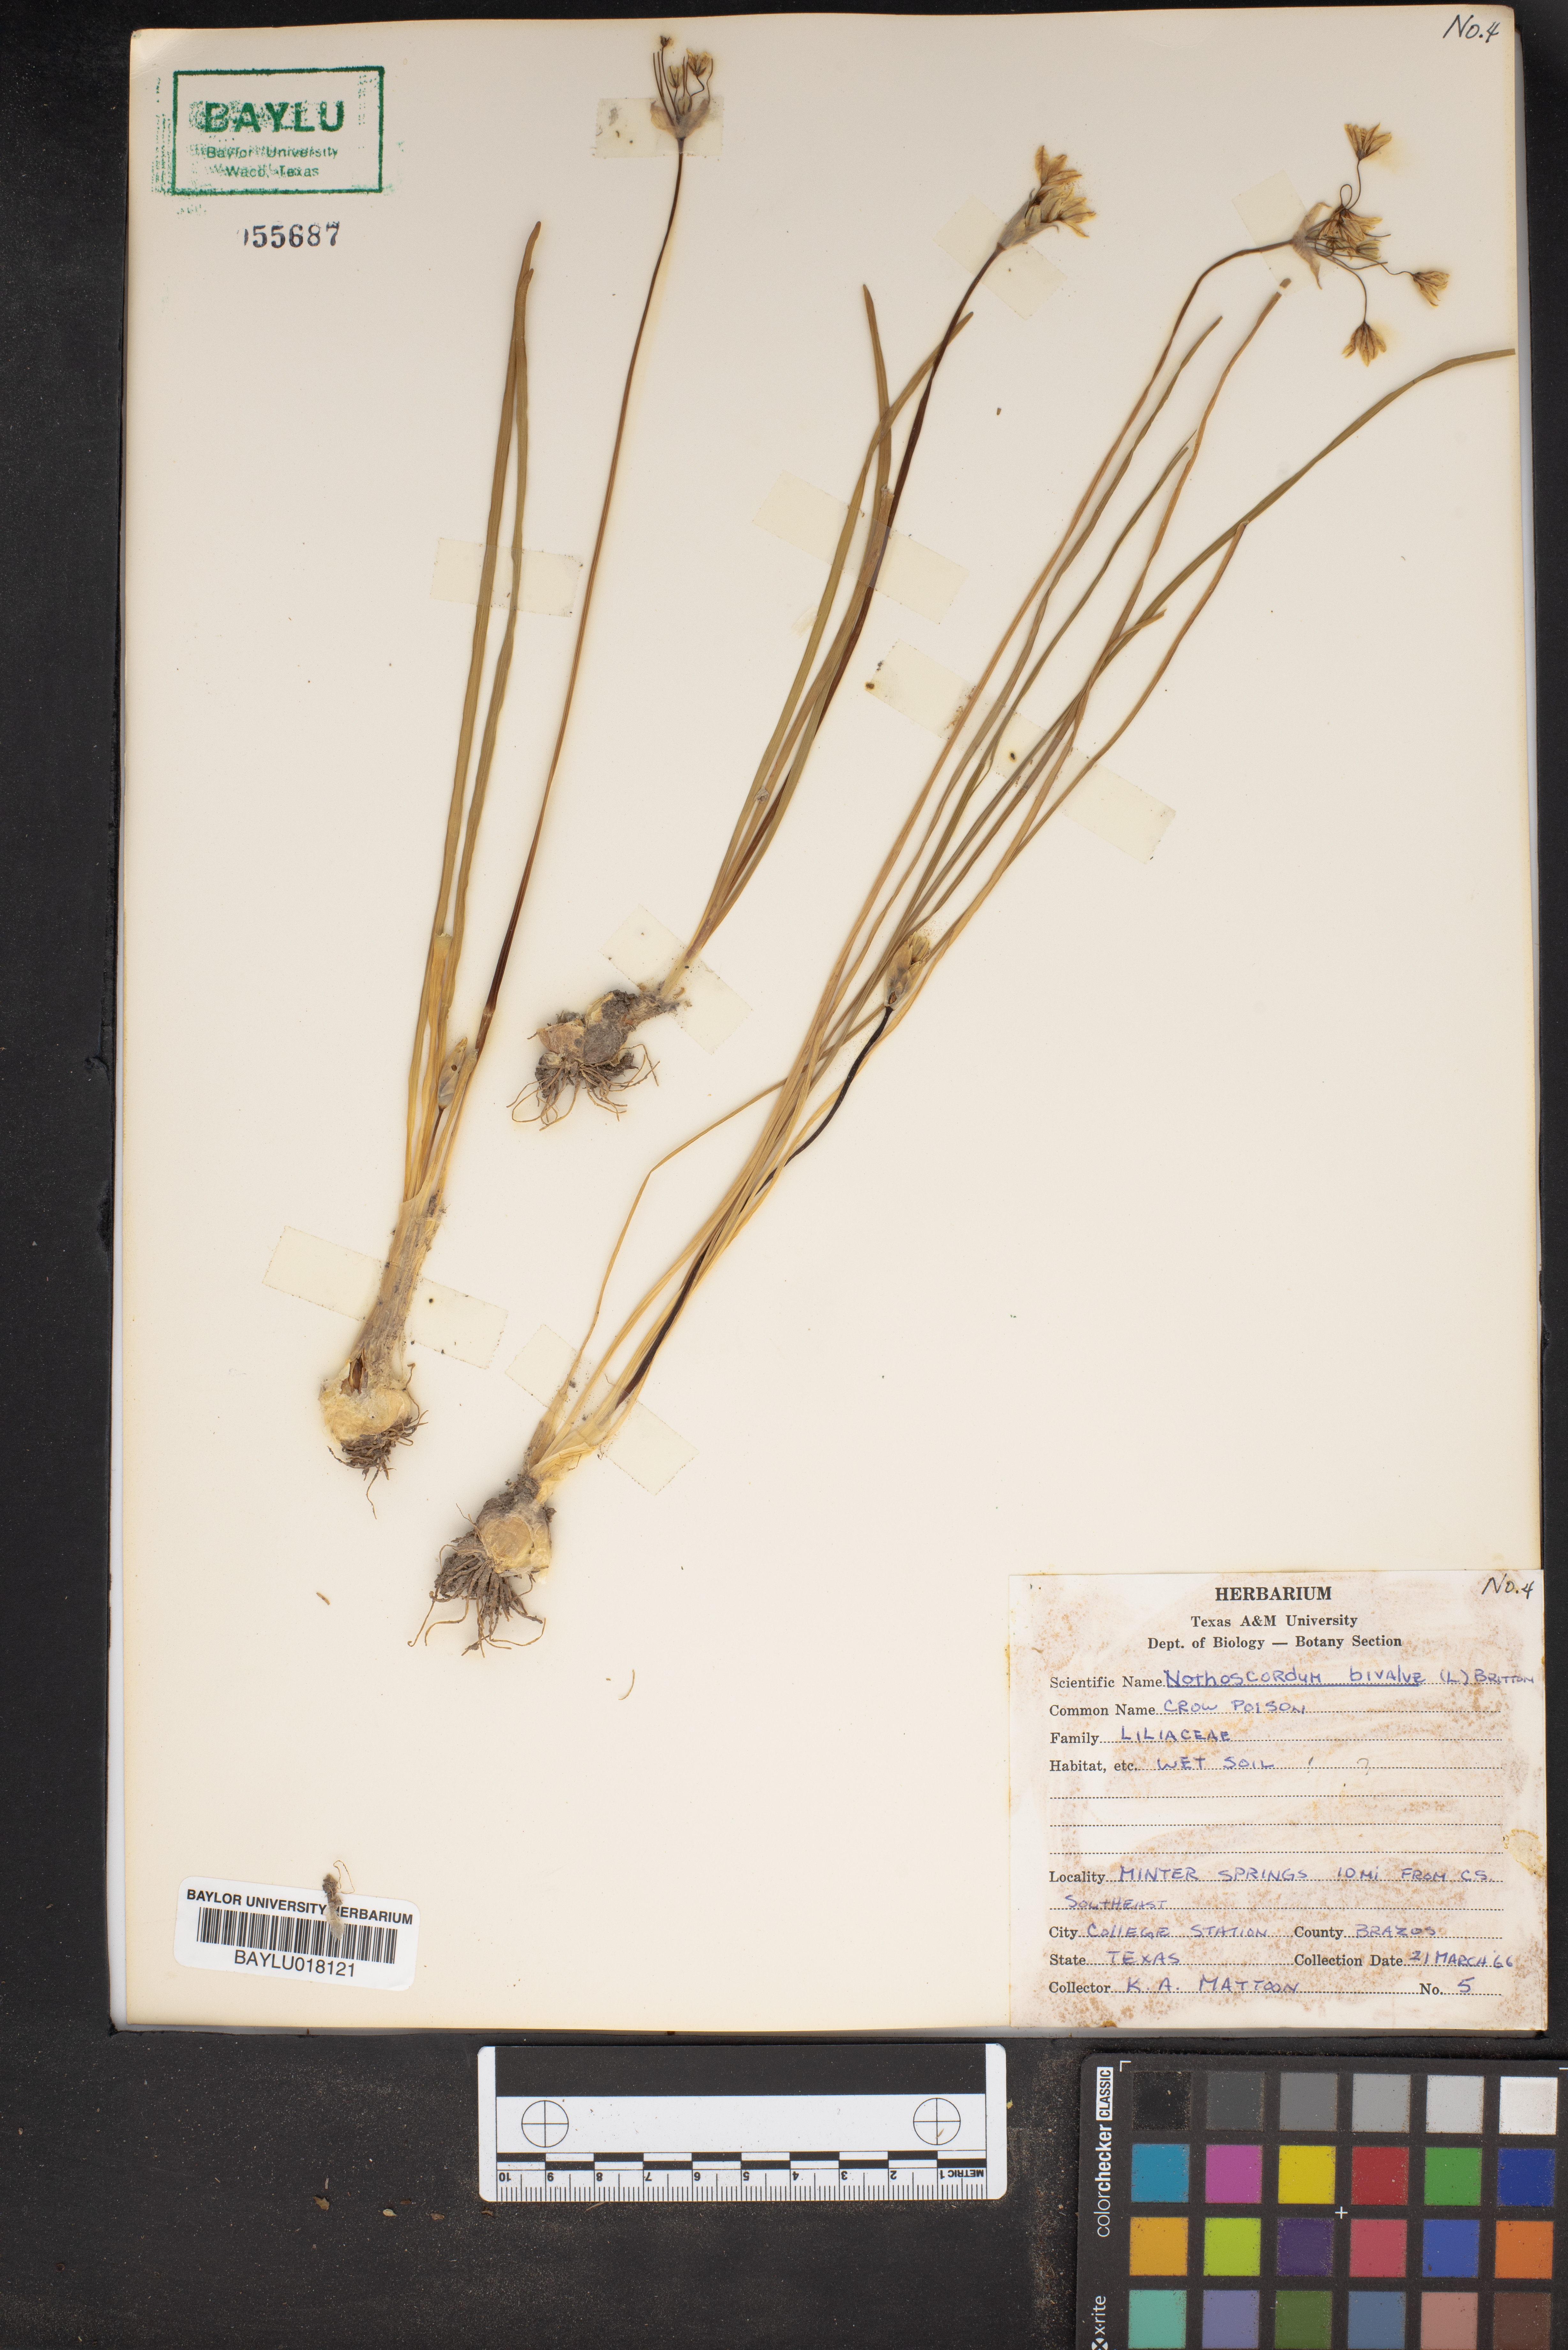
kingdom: Plantae
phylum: Tracheophyta
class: Liliopsida
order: Asparagales
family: Amaryllidaceae
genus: Nothoscordum
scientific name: Nothoscordum bivalve
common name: Crow-poison
